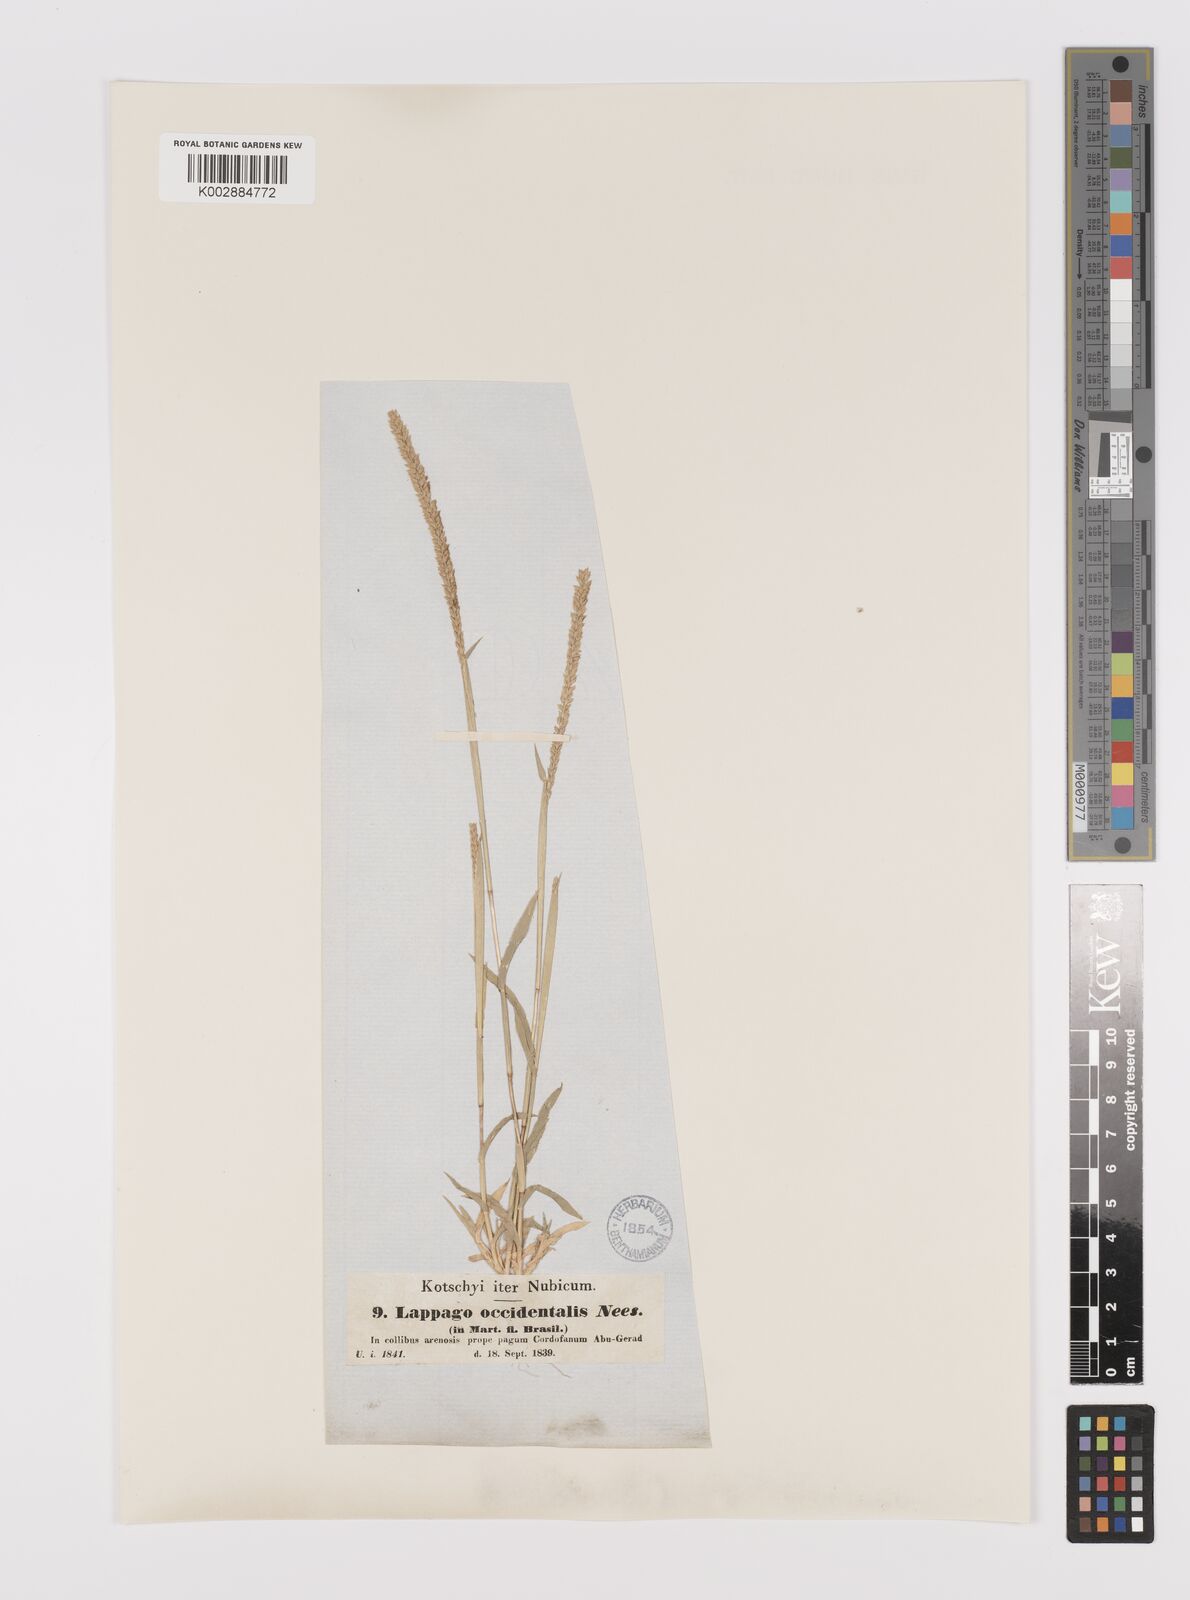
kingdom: Plantae
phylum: Tracheophyta
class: Liliopsida
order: Poales
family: Poaceae
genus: Tragus
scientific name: Tragus berteronianus
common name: African bur-grass
